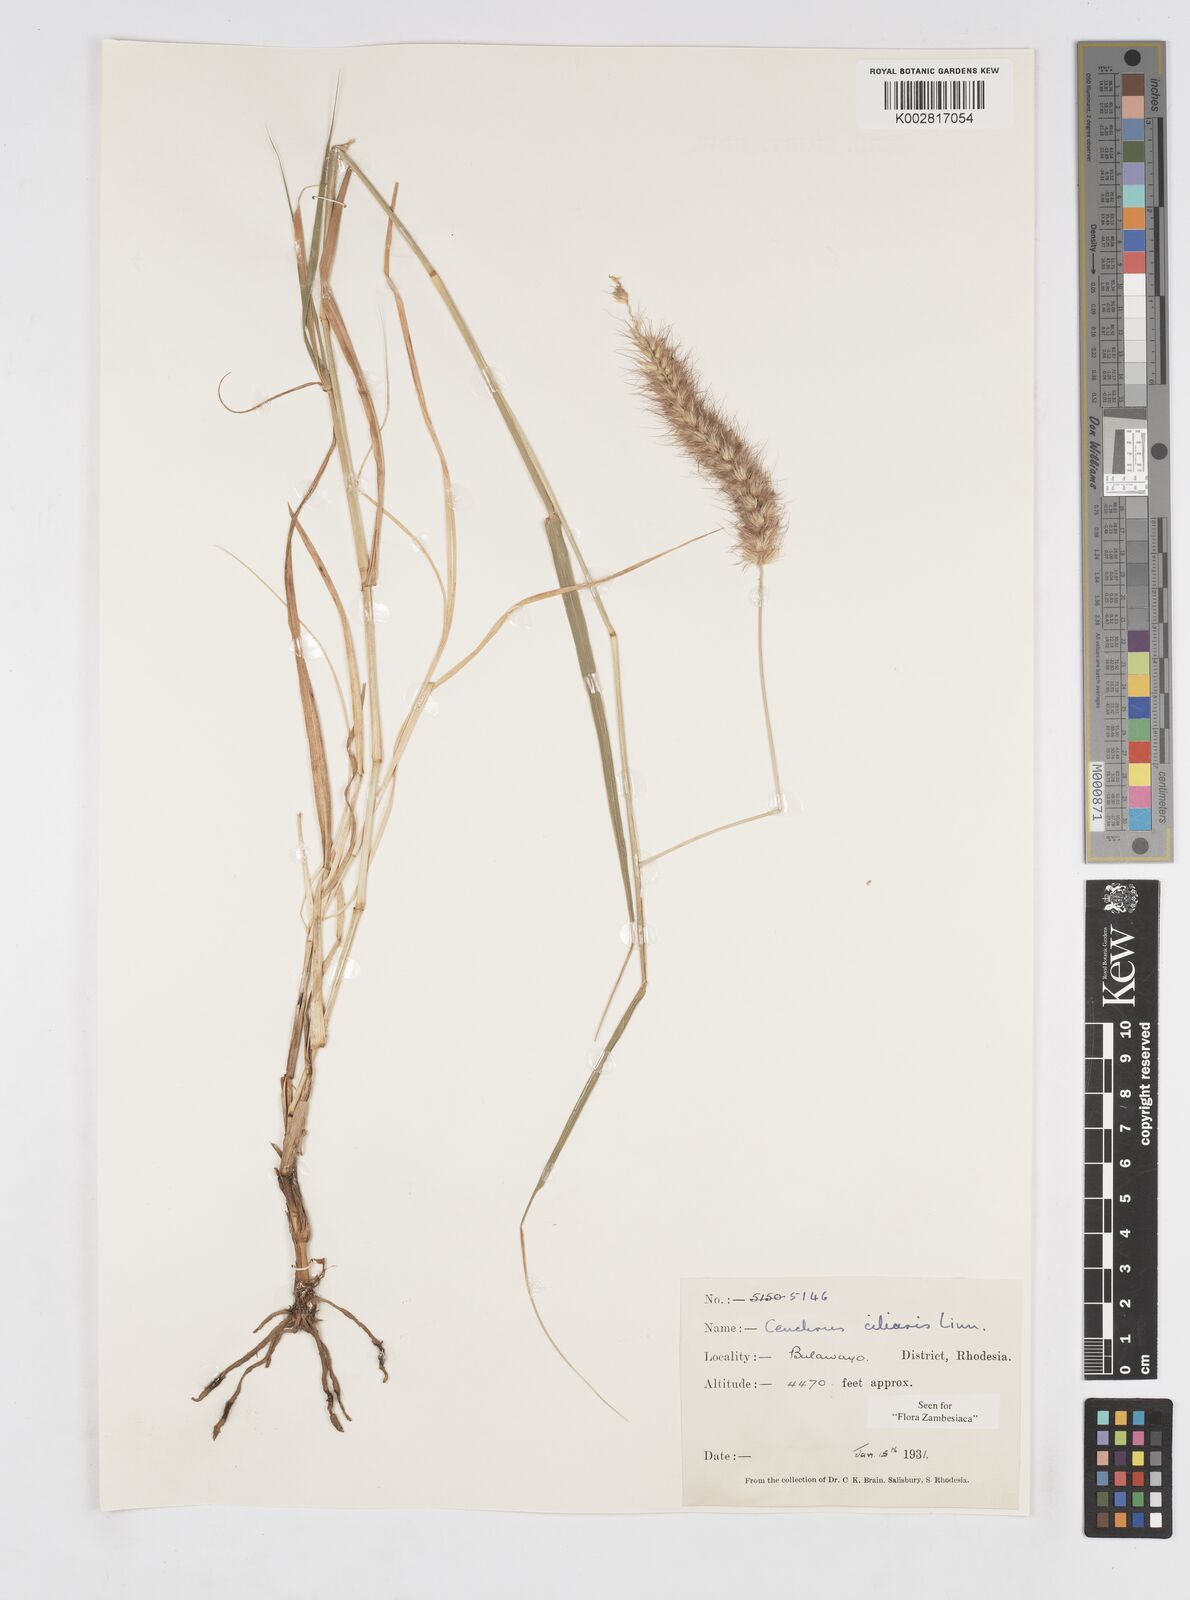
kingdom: Plantae
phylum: Tracheophyta
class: Liliopsida
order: Poales
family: Poaceae
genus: Cenchrus
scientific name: Cenchrus ciliaris
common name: Buffelgrass
